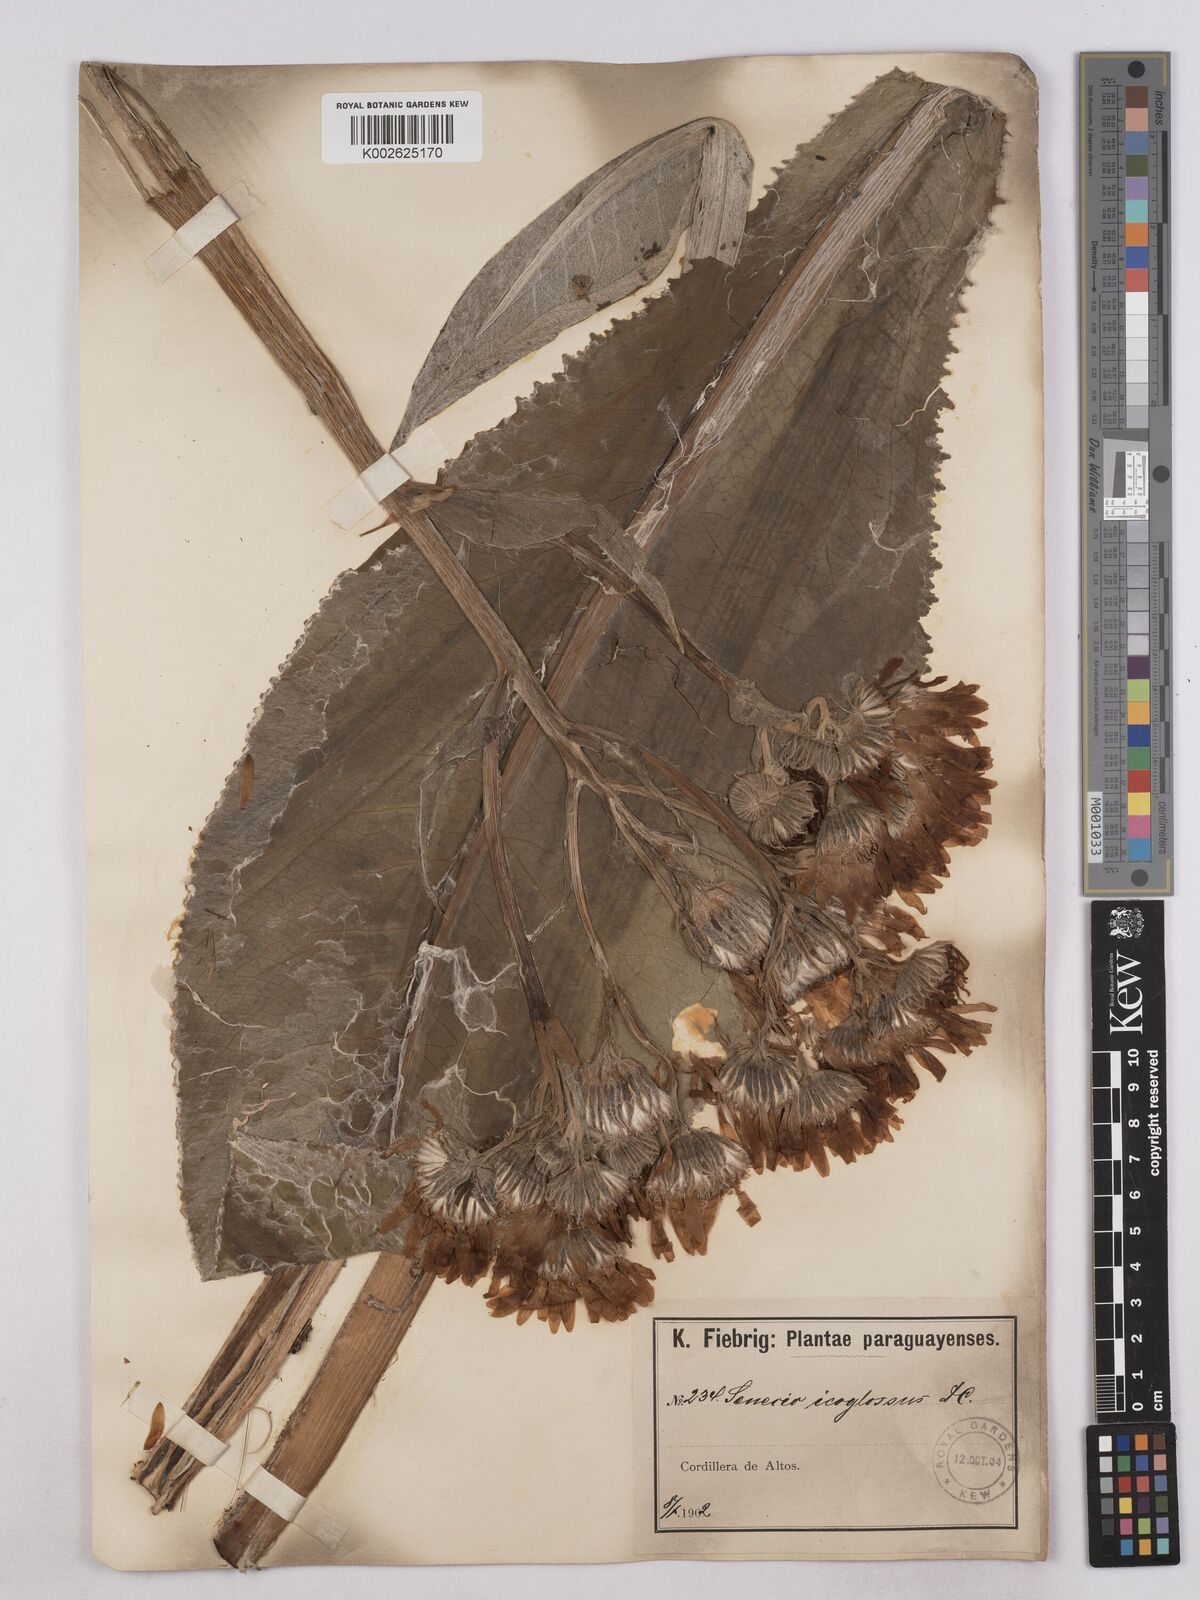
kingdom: Plantae
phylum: Tracheophyta
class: Magnoliopsida
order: Asterales
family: Asteraceae
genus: Senecio
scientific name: Senecio icoglossus
